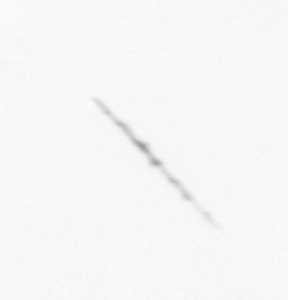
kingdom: Chromista
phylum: Ochrophyta
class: Bacillariophyceae
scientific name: Bacillariophyceae
